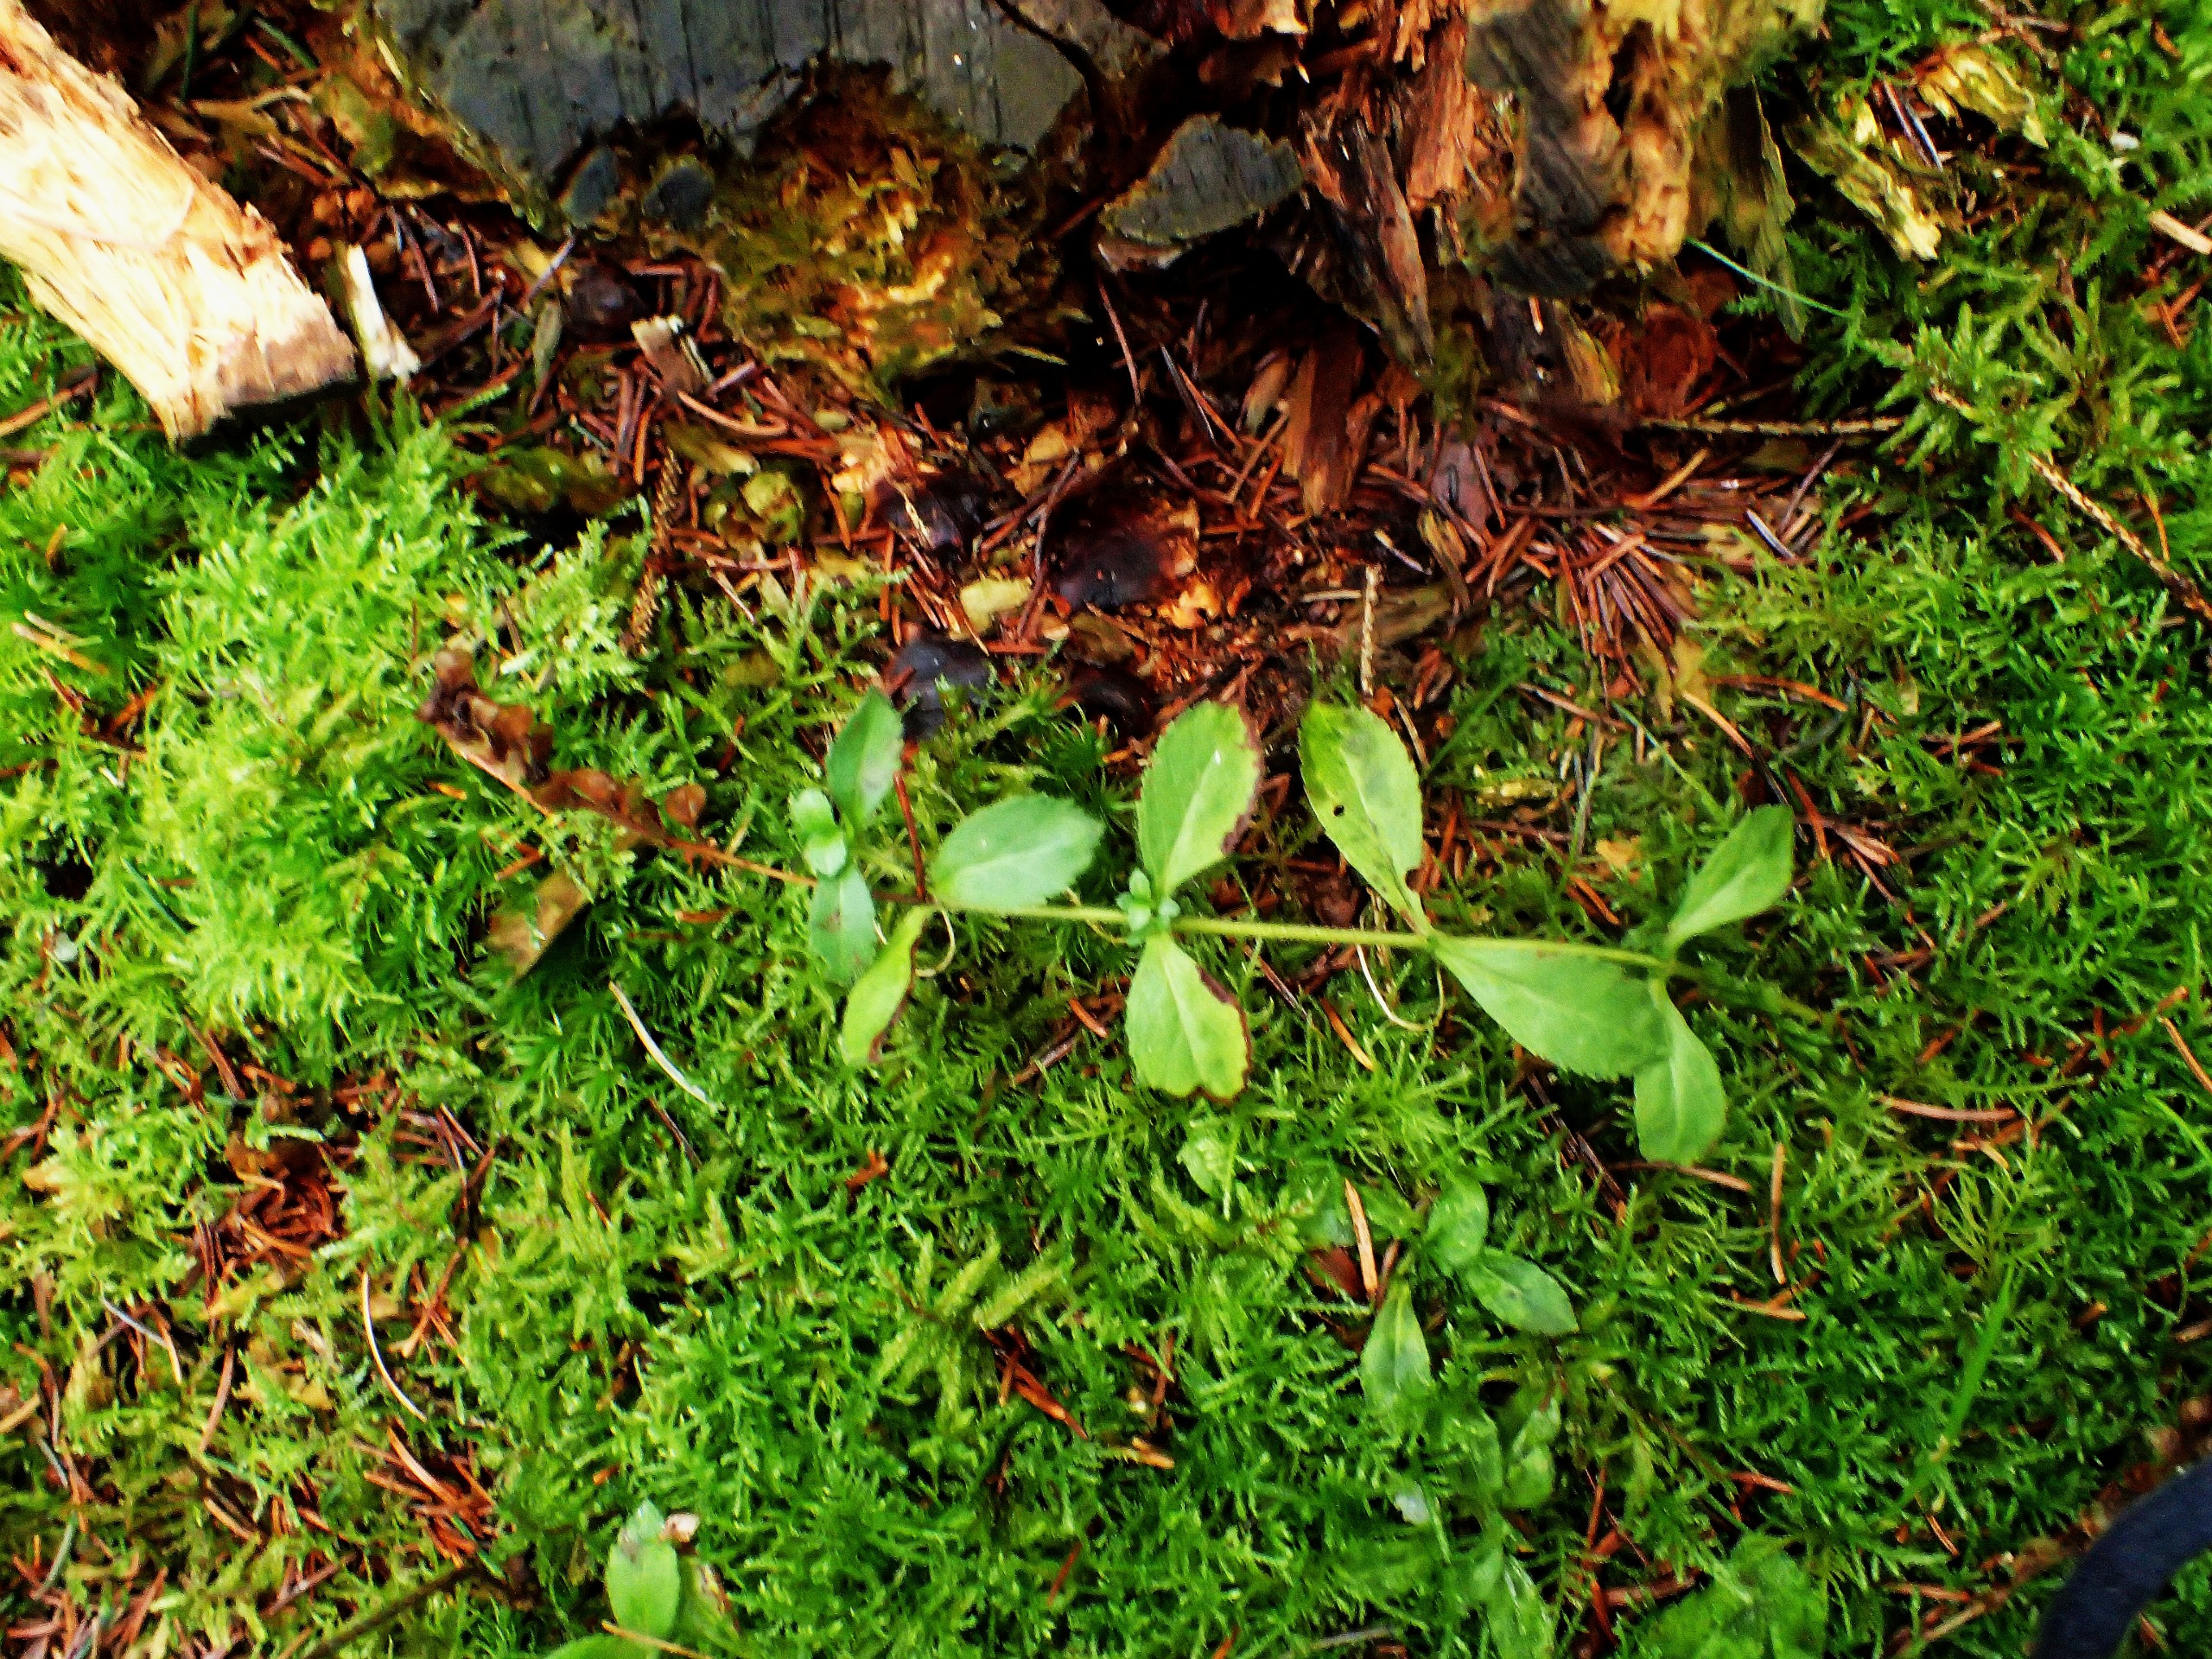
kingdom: Plantae
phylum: Tracheophyta
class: Magnoliopsida
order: Lamiales
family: Plantaginaceae
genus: Veronica
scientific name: Veronica officinalis
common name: Læge-ærenpris
